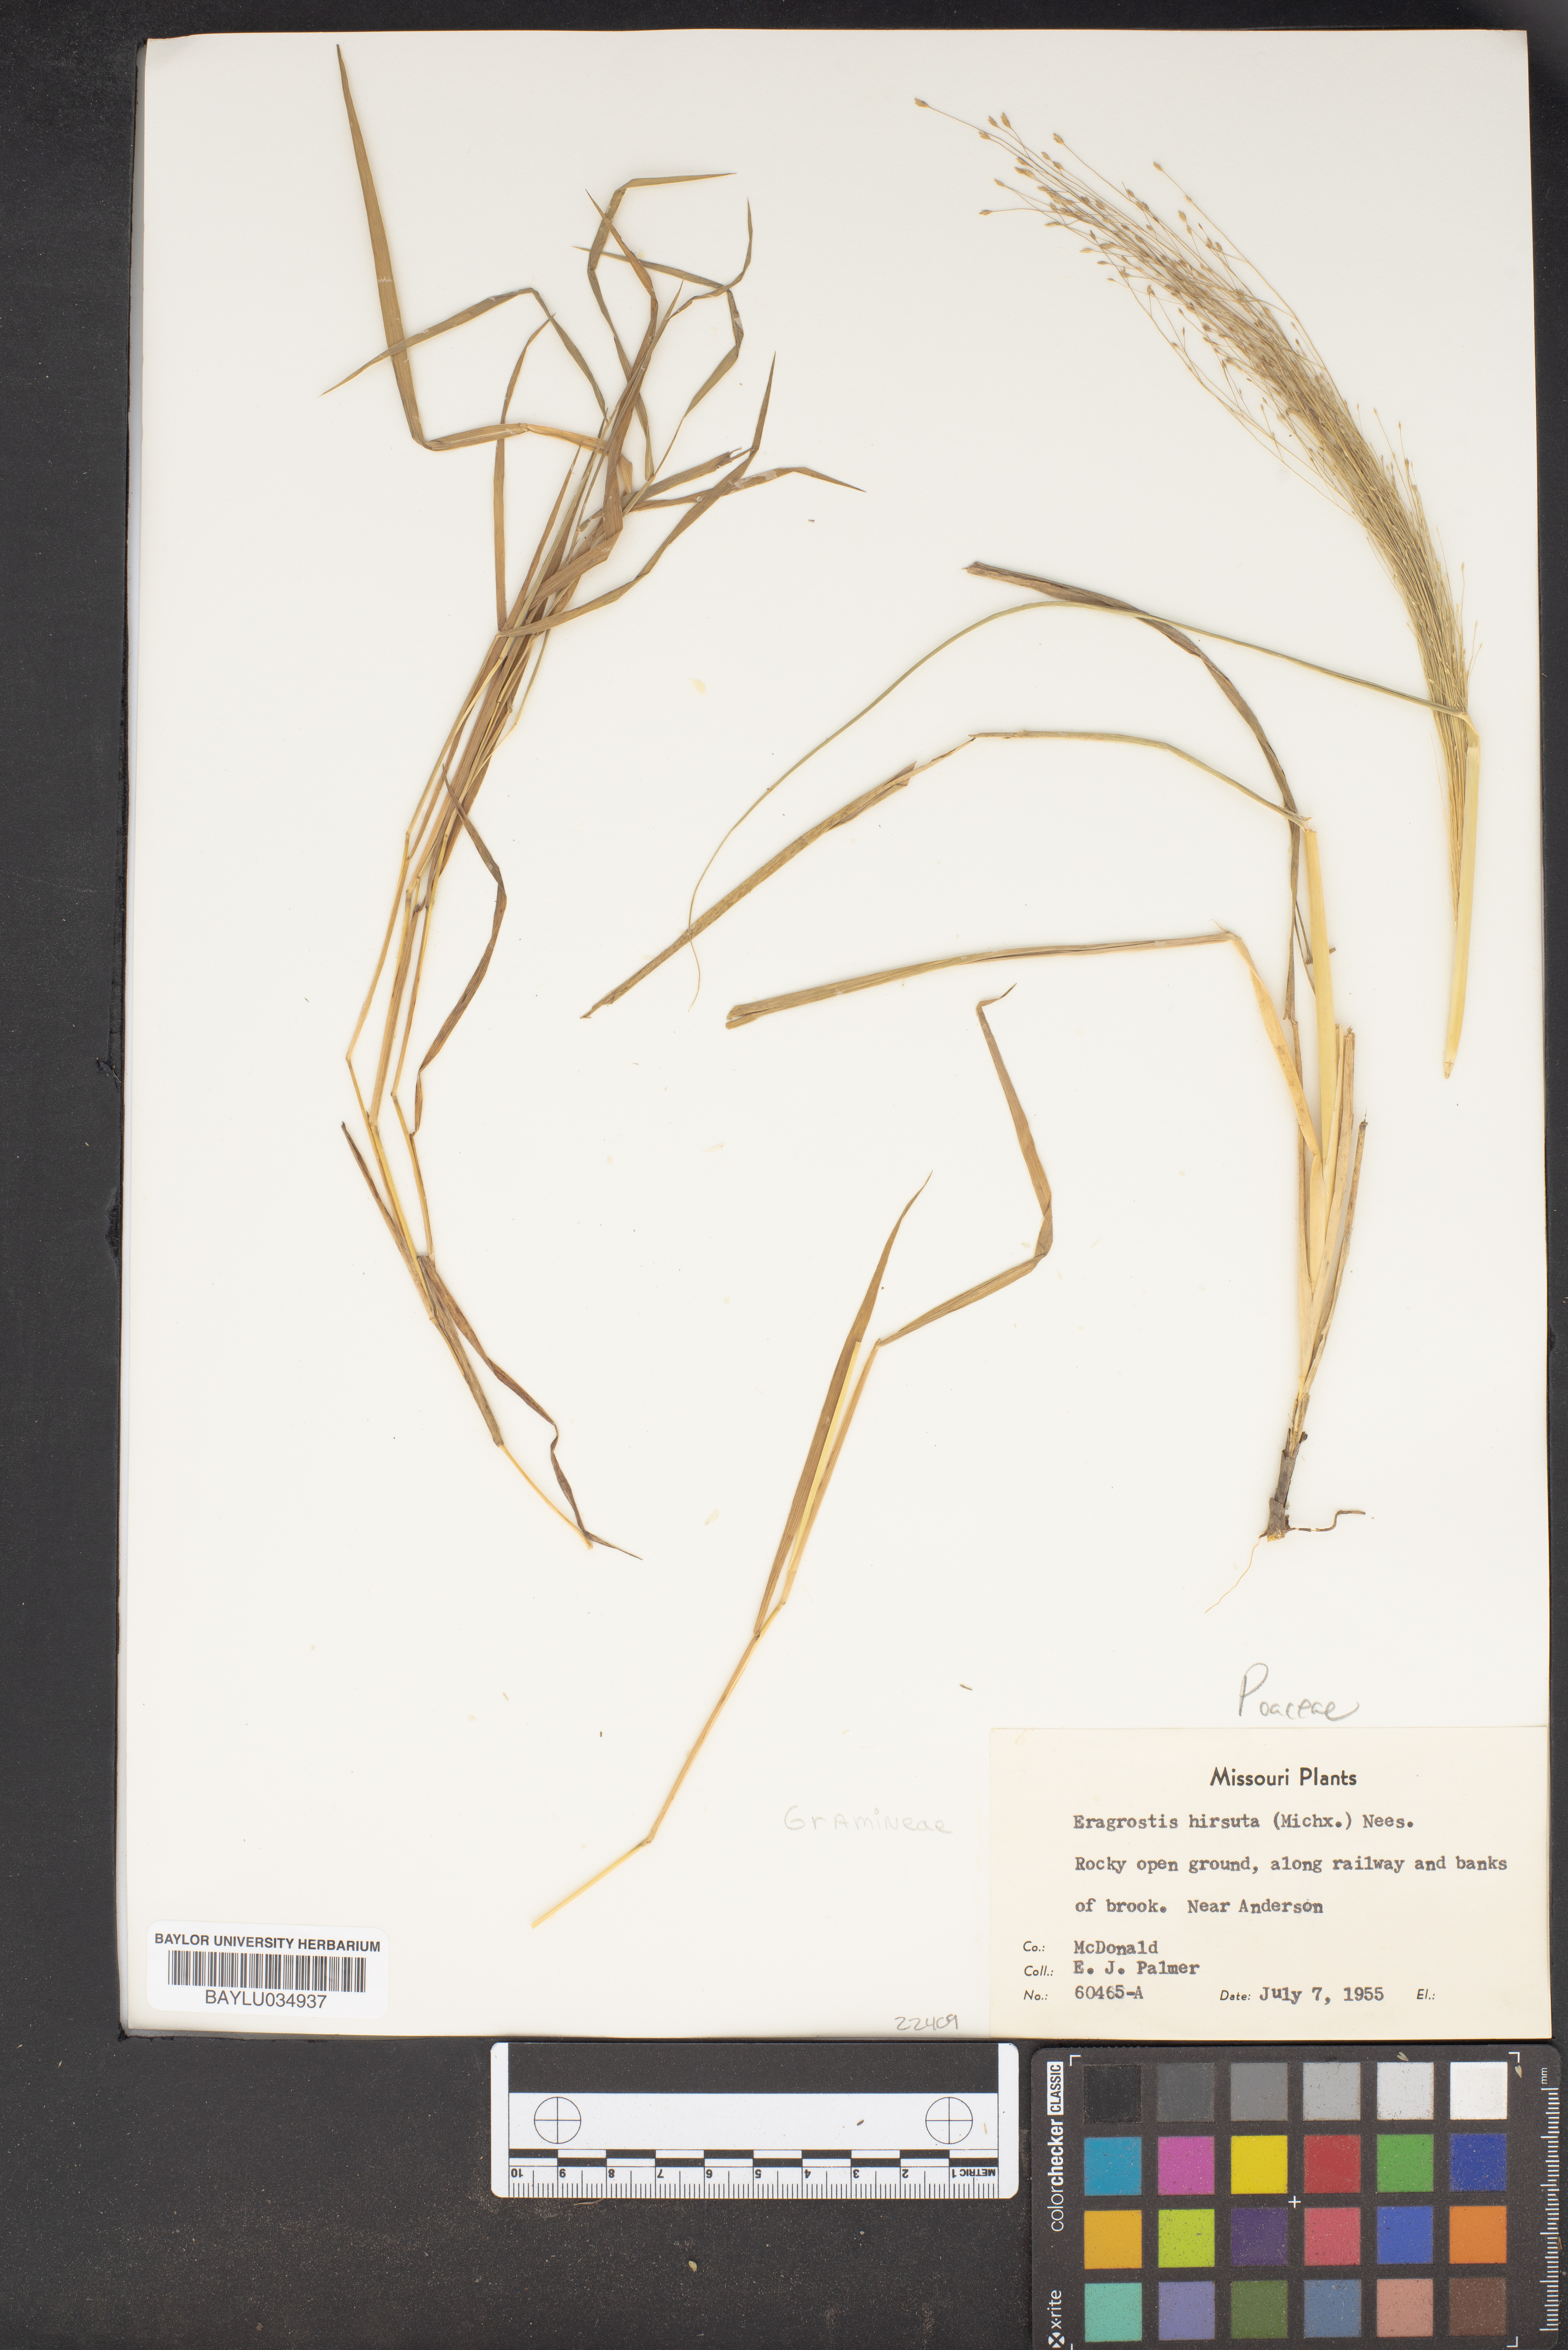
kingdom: Plantae
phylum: Tracheophyta
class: Liliopsida
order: Poales
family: Poaceae
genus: Eragrostis
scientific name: Eragrostis hirsuta
